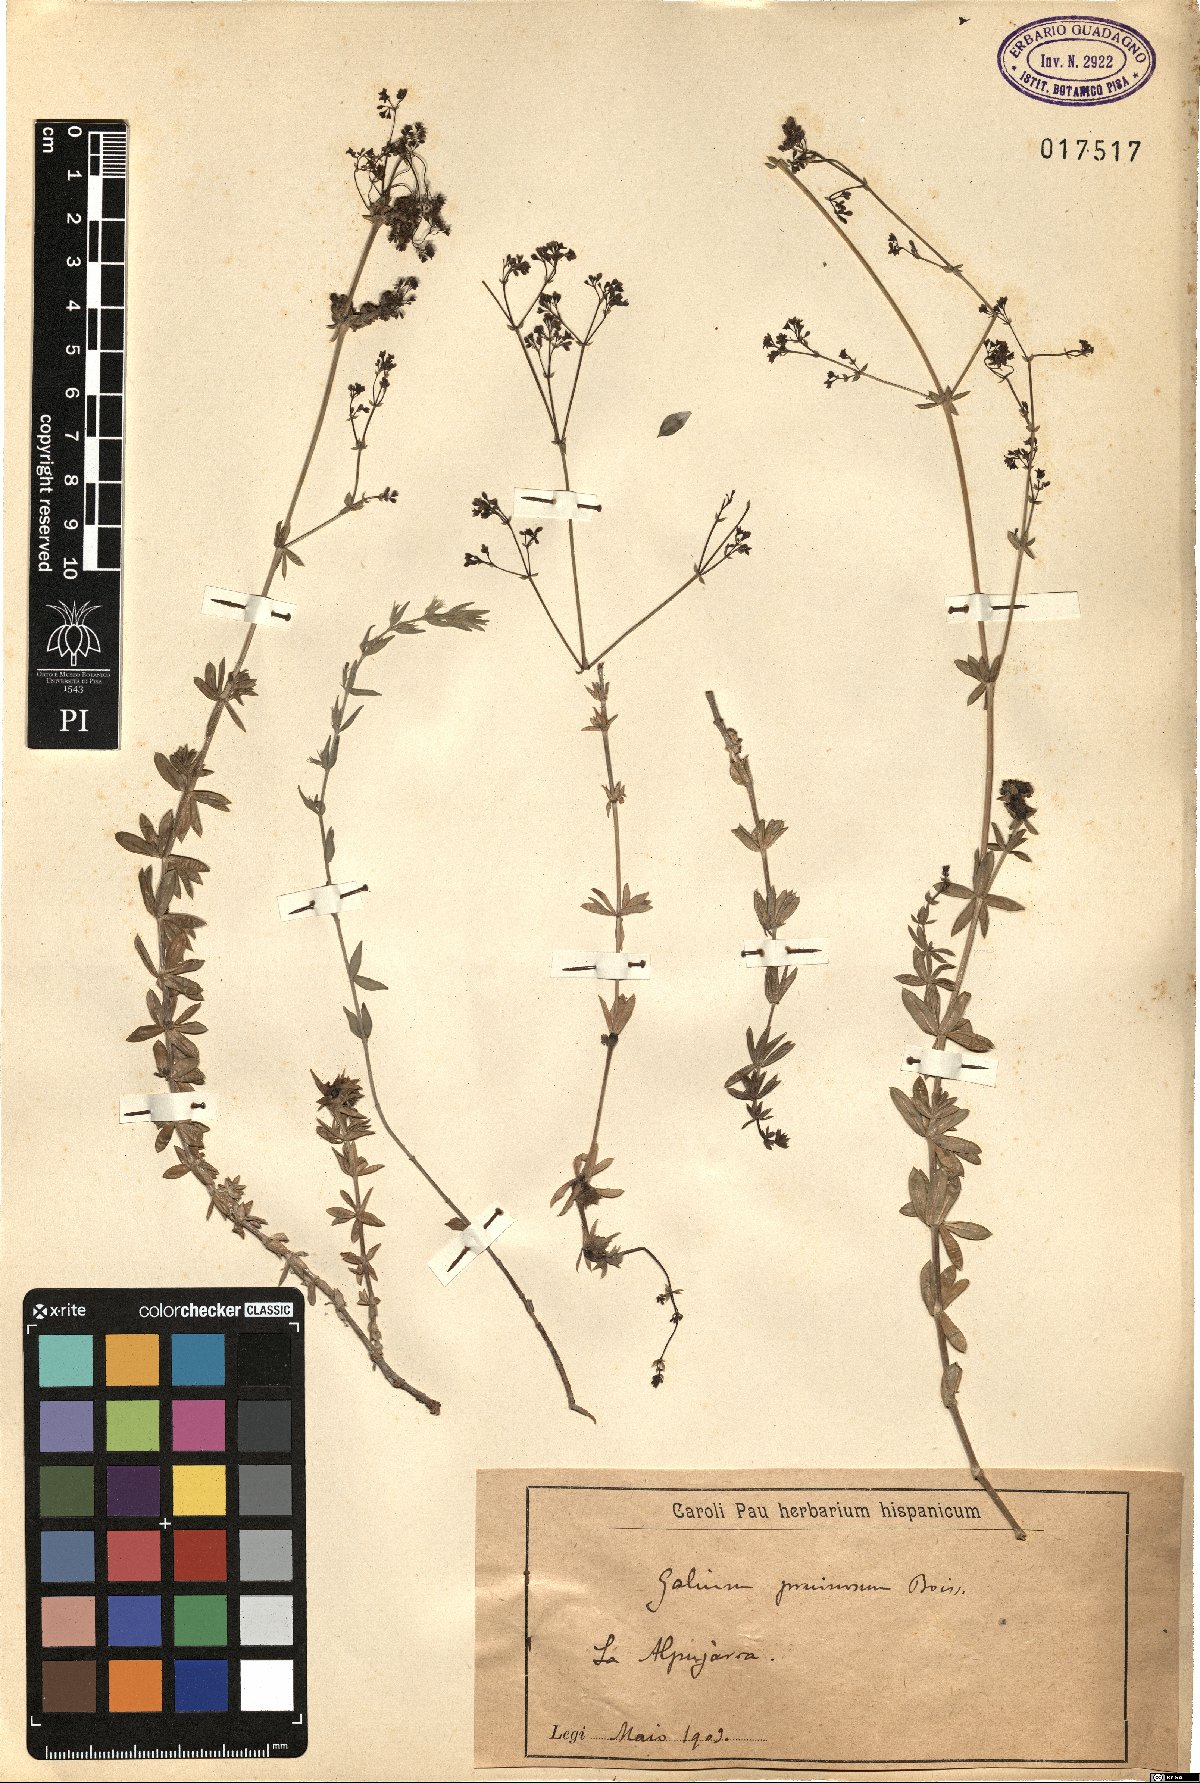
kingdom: Plantae
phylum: Tracheophyta
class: Magnoliopsida
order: Gentianales
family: Rubiaceae
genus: Galium
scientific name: Galium pruinosum
